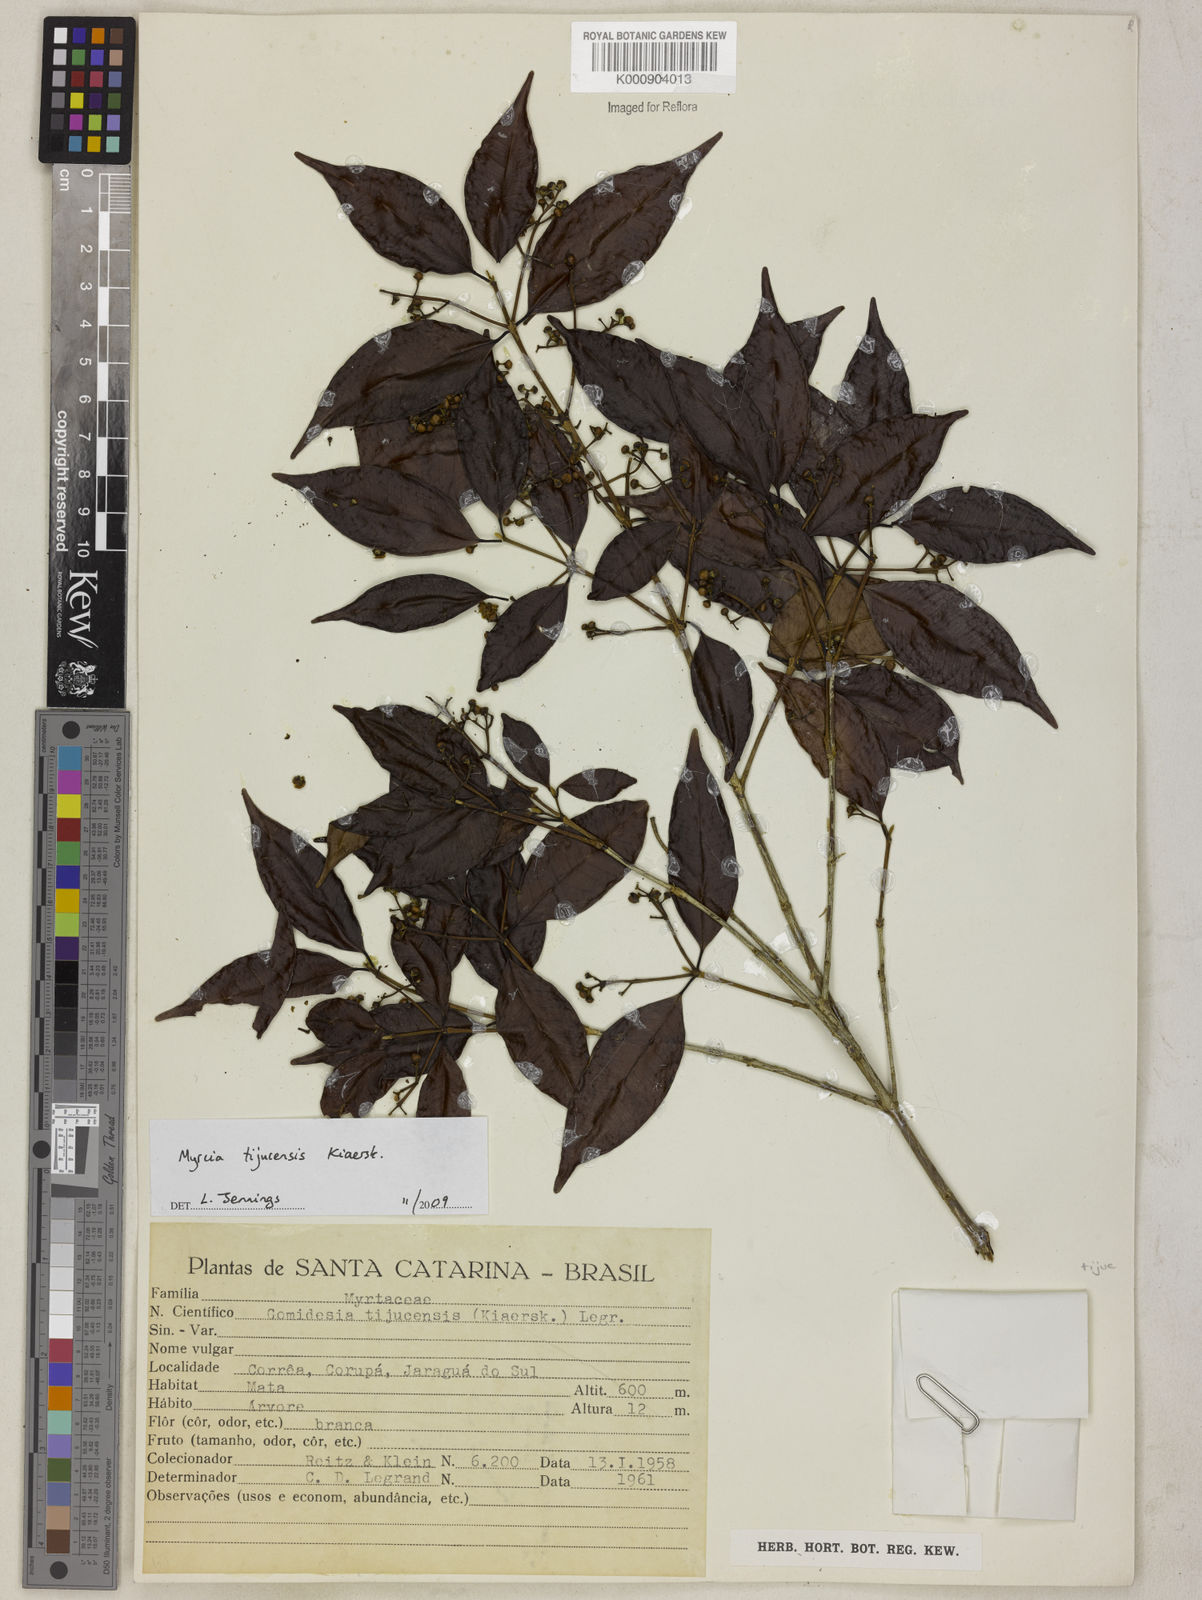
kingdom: Plantae
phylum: Tracheophyta
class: Magnoliopsida
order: Myrtales
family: Myrtaceae
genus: Myrcia
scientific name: Myrcia tijucensis
